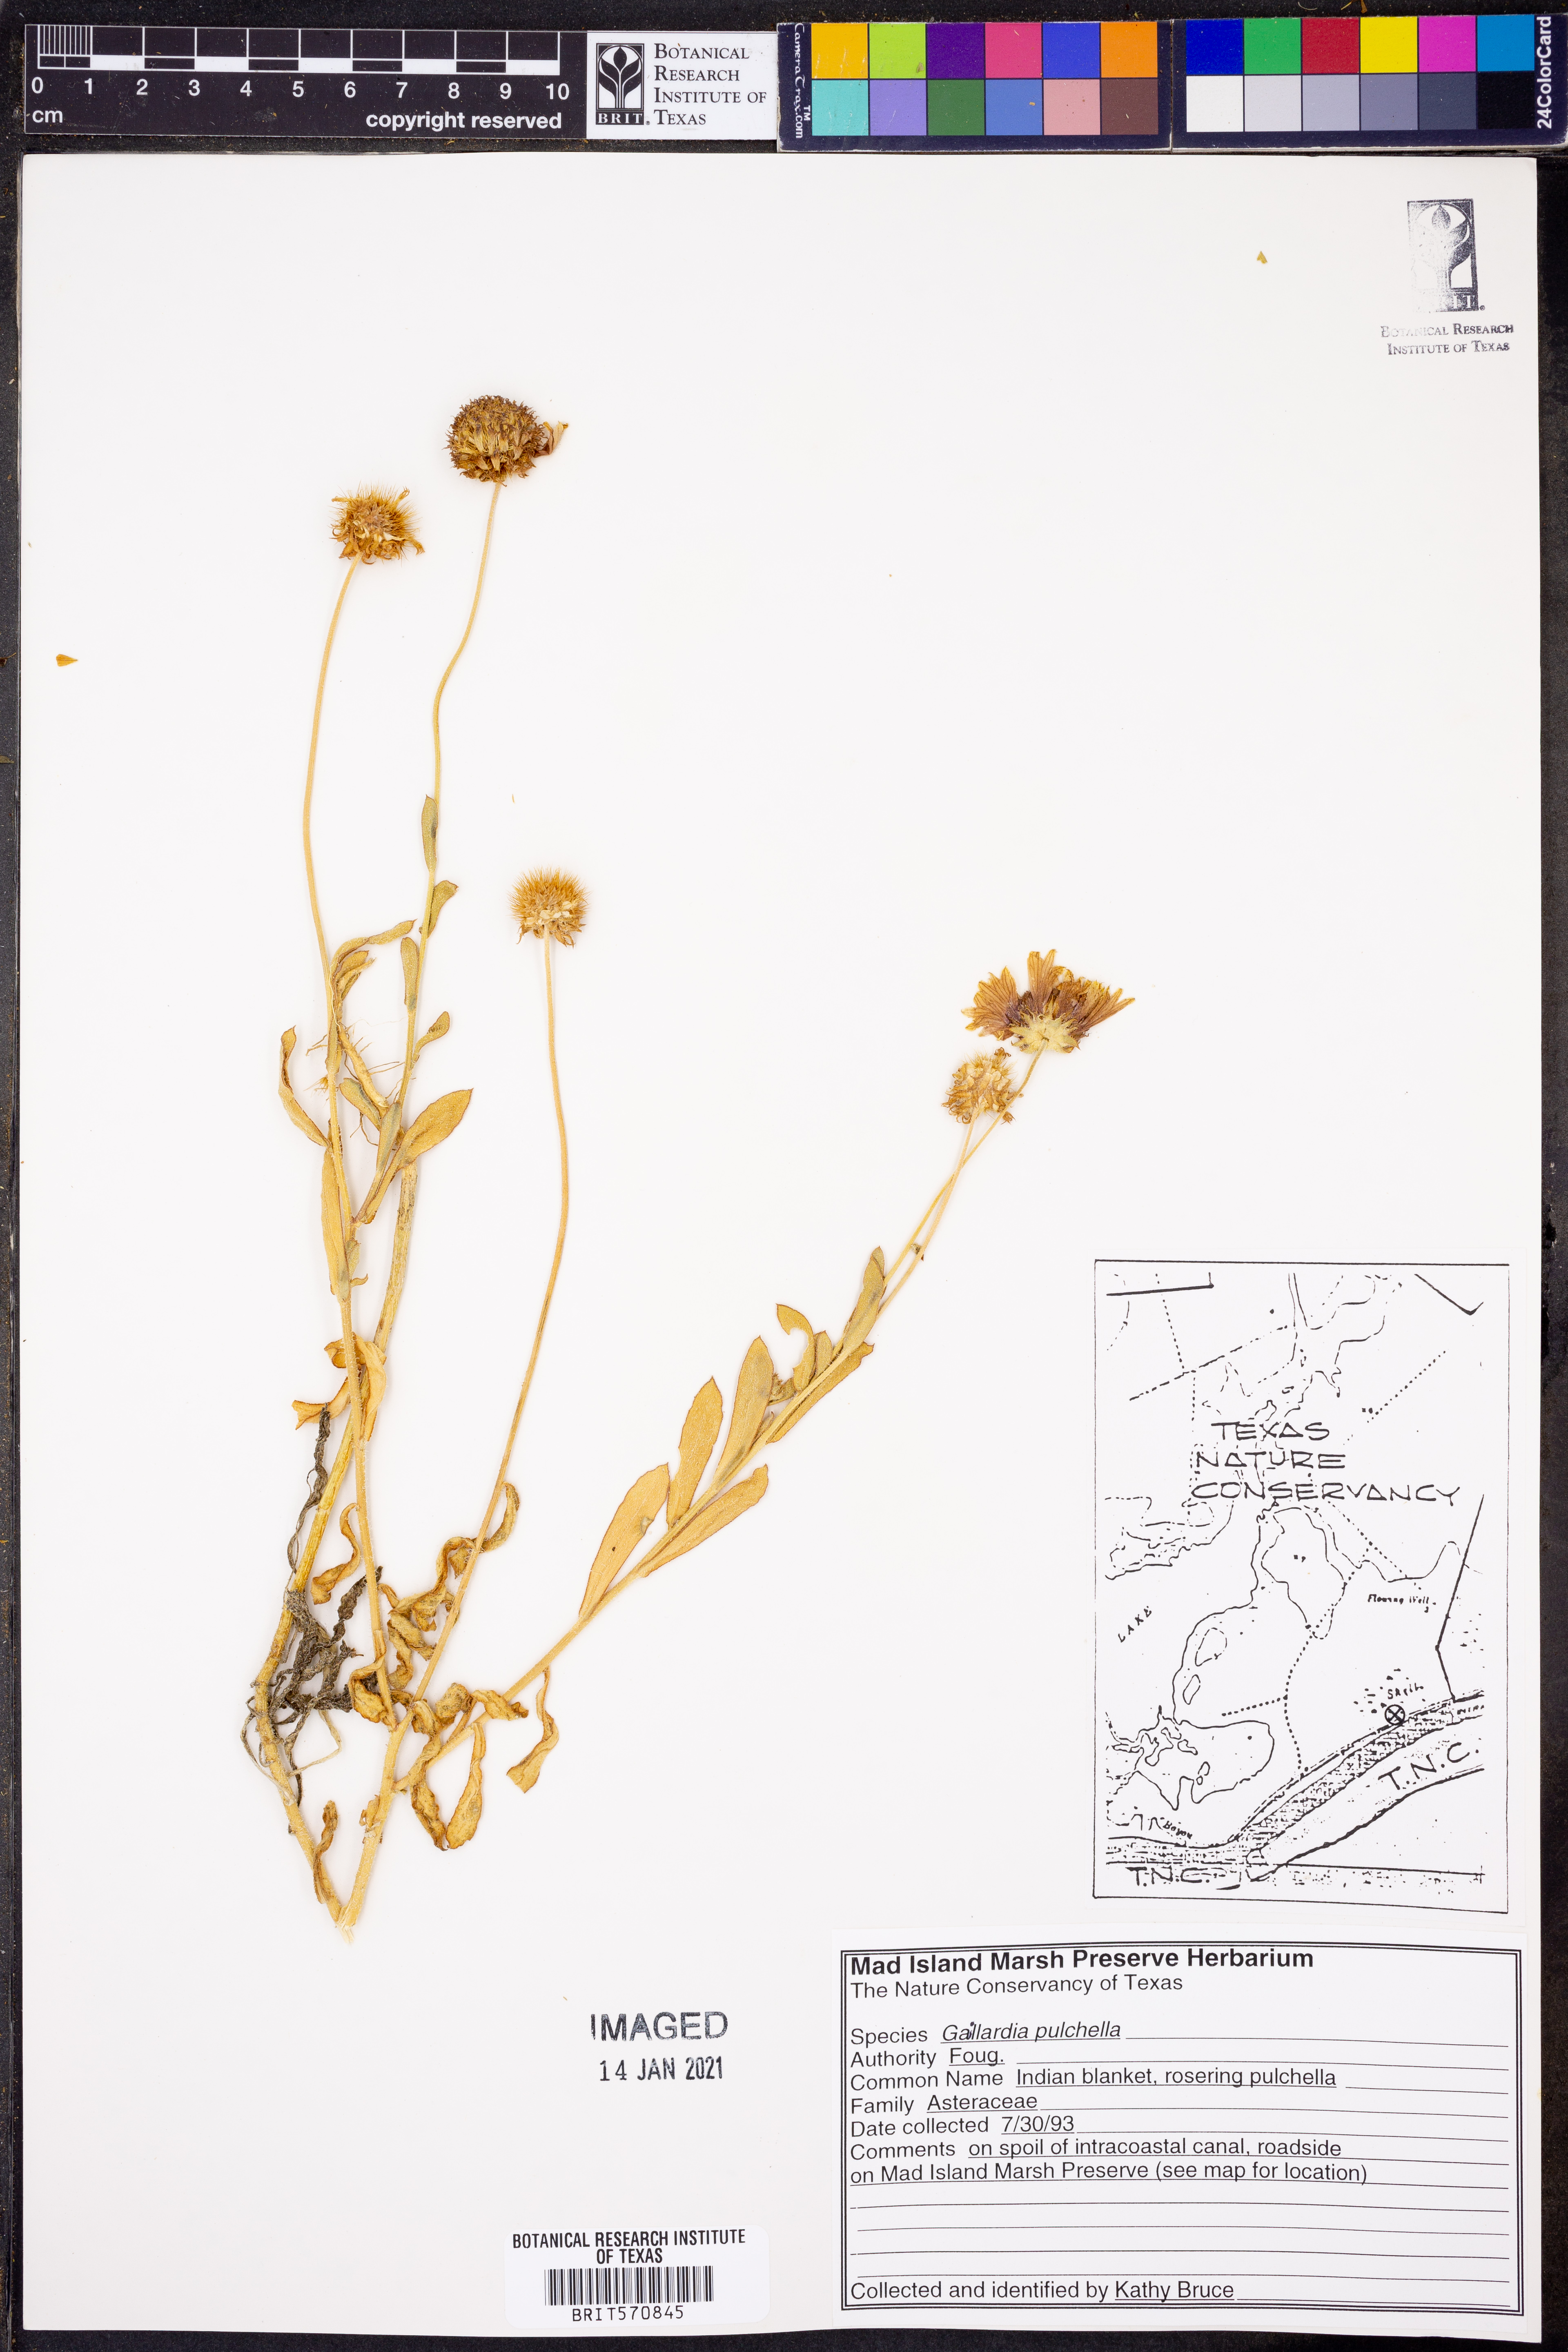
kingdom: Plantae
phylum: Tracheophyta
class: Magnoliopsida
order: Asterales
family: Asteraceae
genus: Gaillardia
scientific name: Gaillardia pulchella
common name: Firewheel
